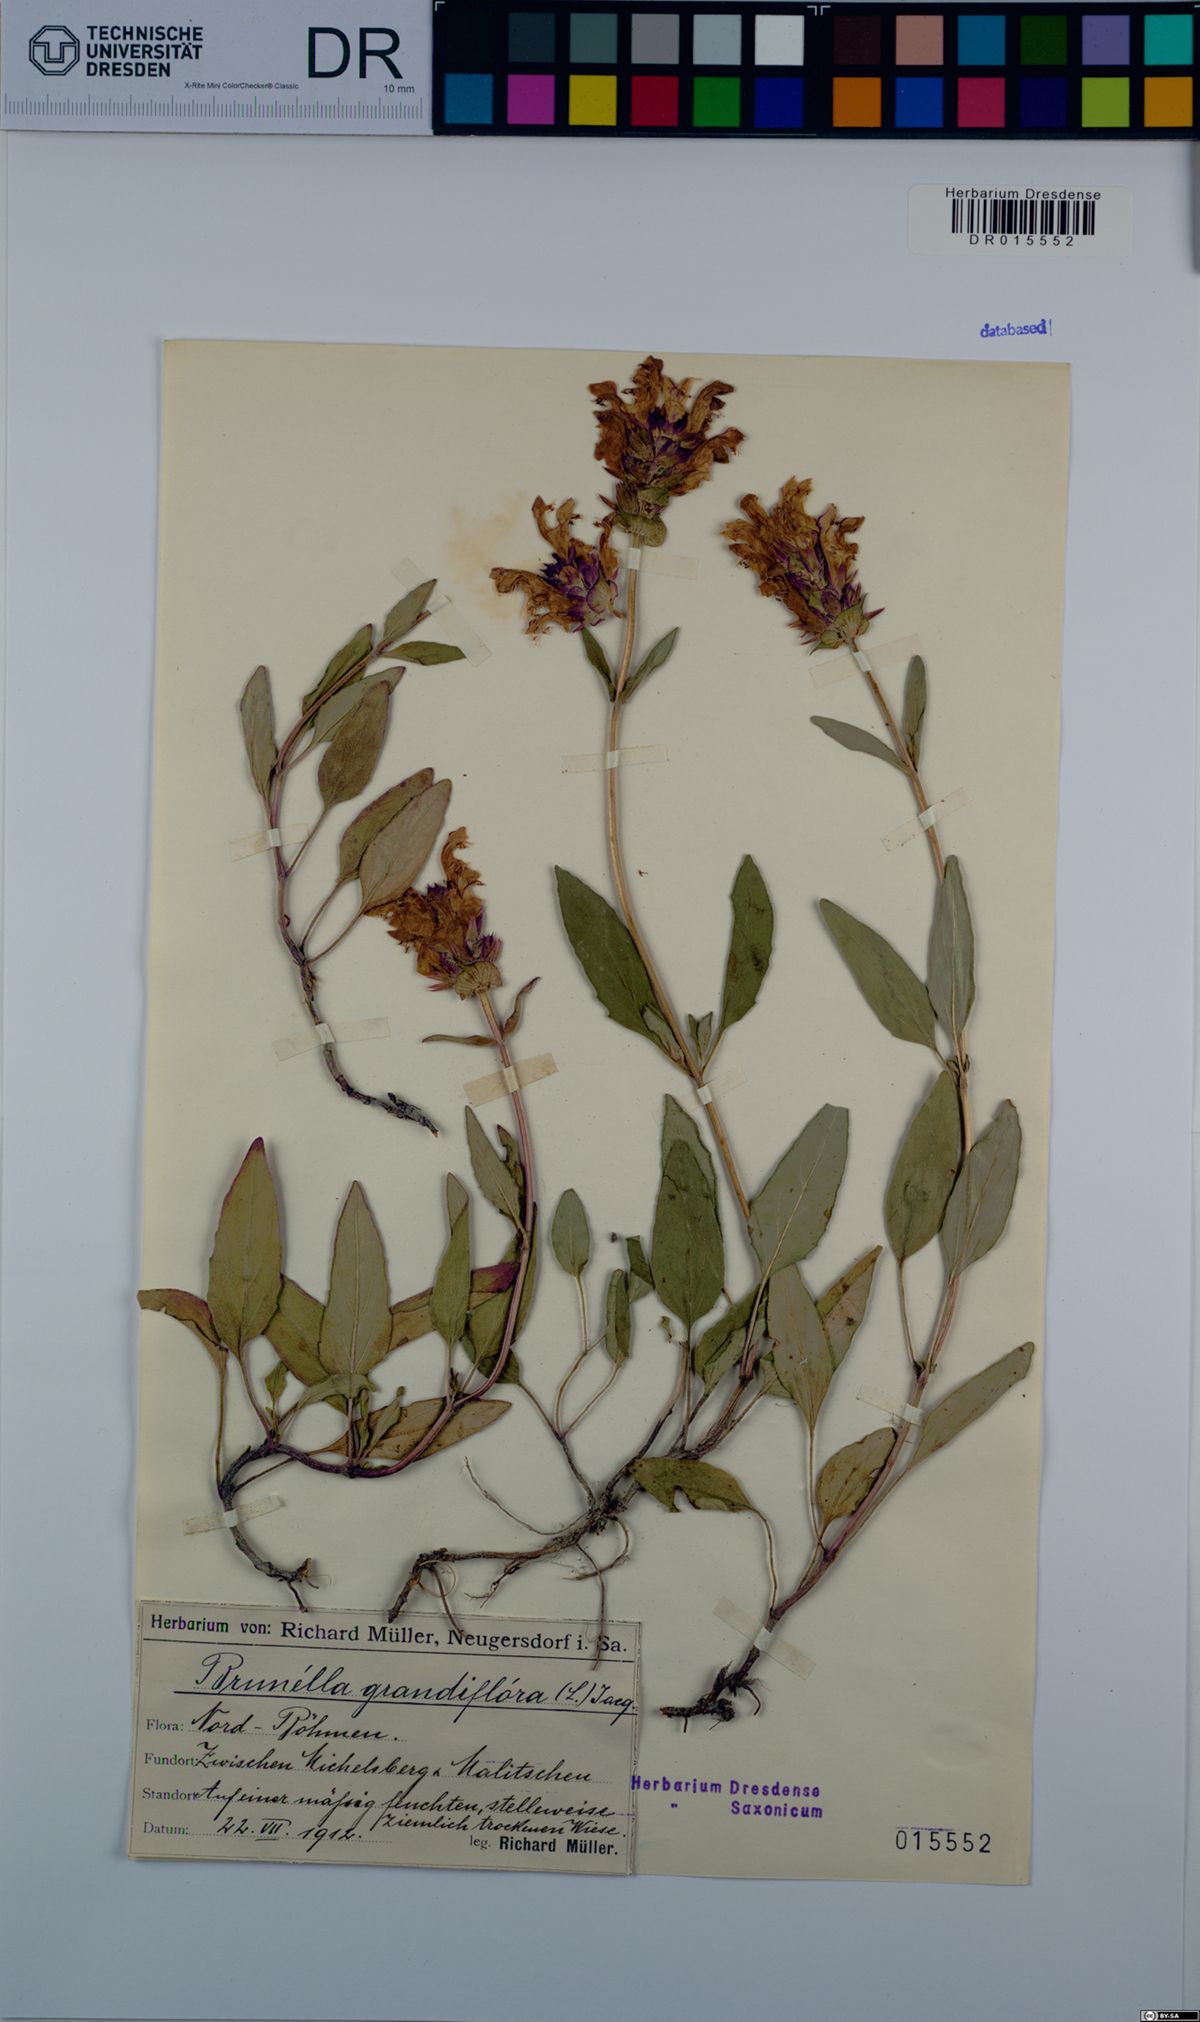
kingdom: Plantae
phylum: Tracheophyta
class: Magnoliopsida
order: Lamiales
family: Lamiaceae
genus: Prunella
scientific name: Prunella grandiflora
